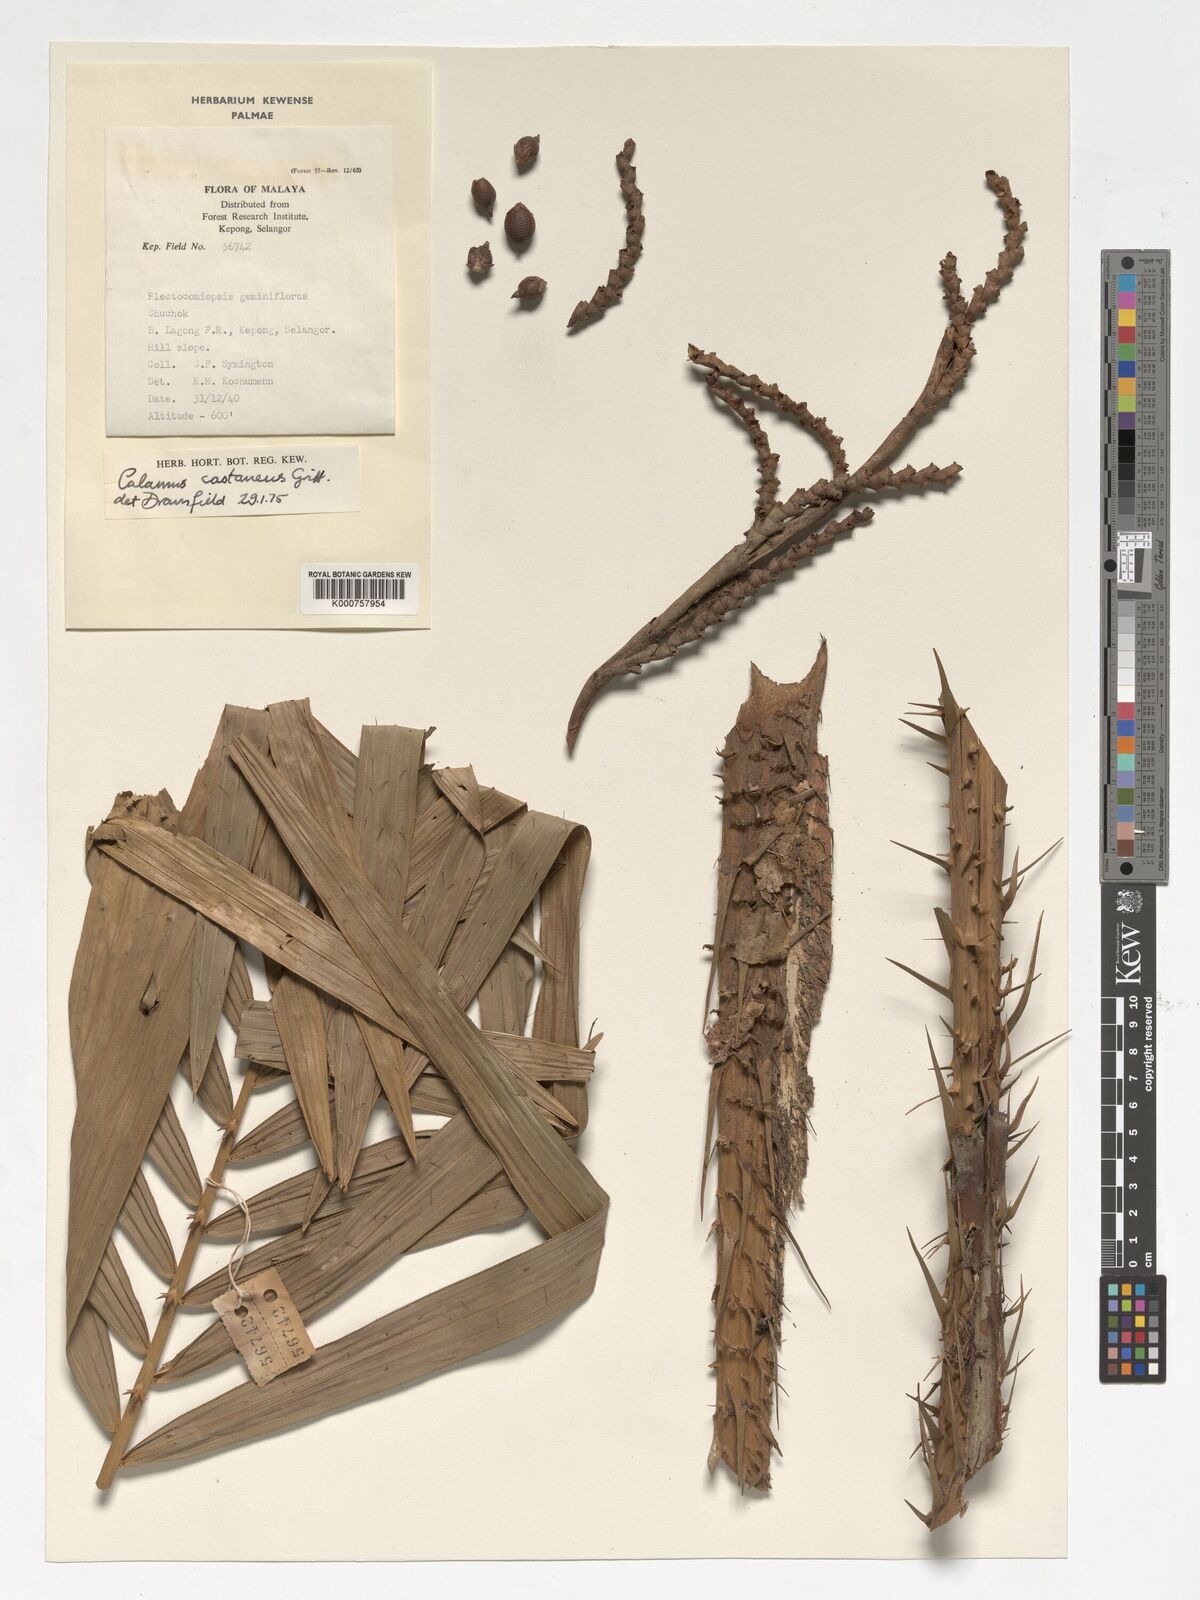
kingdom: Plantae
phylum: Tracheophyta
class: Liliopsida
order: Arecales
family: Arecaceae
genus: Calamus
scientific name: Calamus castaneus
